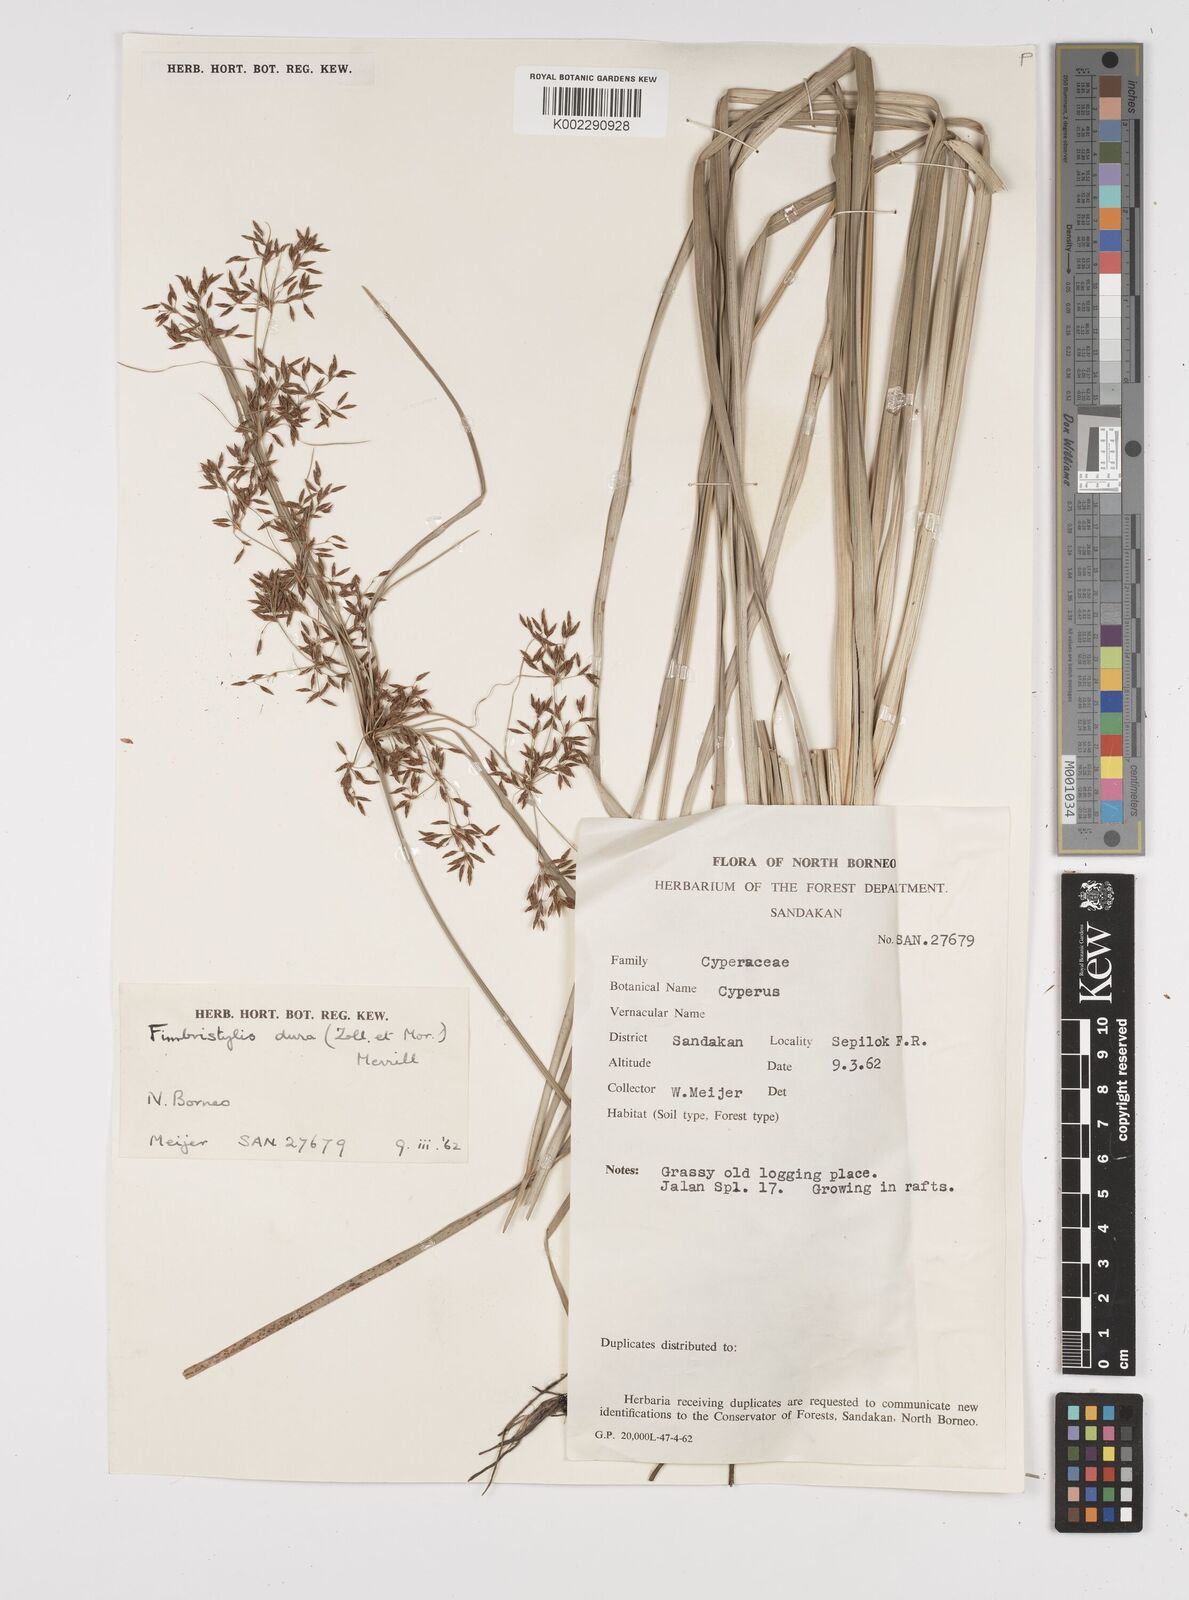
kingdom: Plantae
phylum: Tracheophyta
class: Liliopsida
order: Poales
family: Cyperaceae
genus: Fimbristylis
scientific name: Fimbristylis dura
